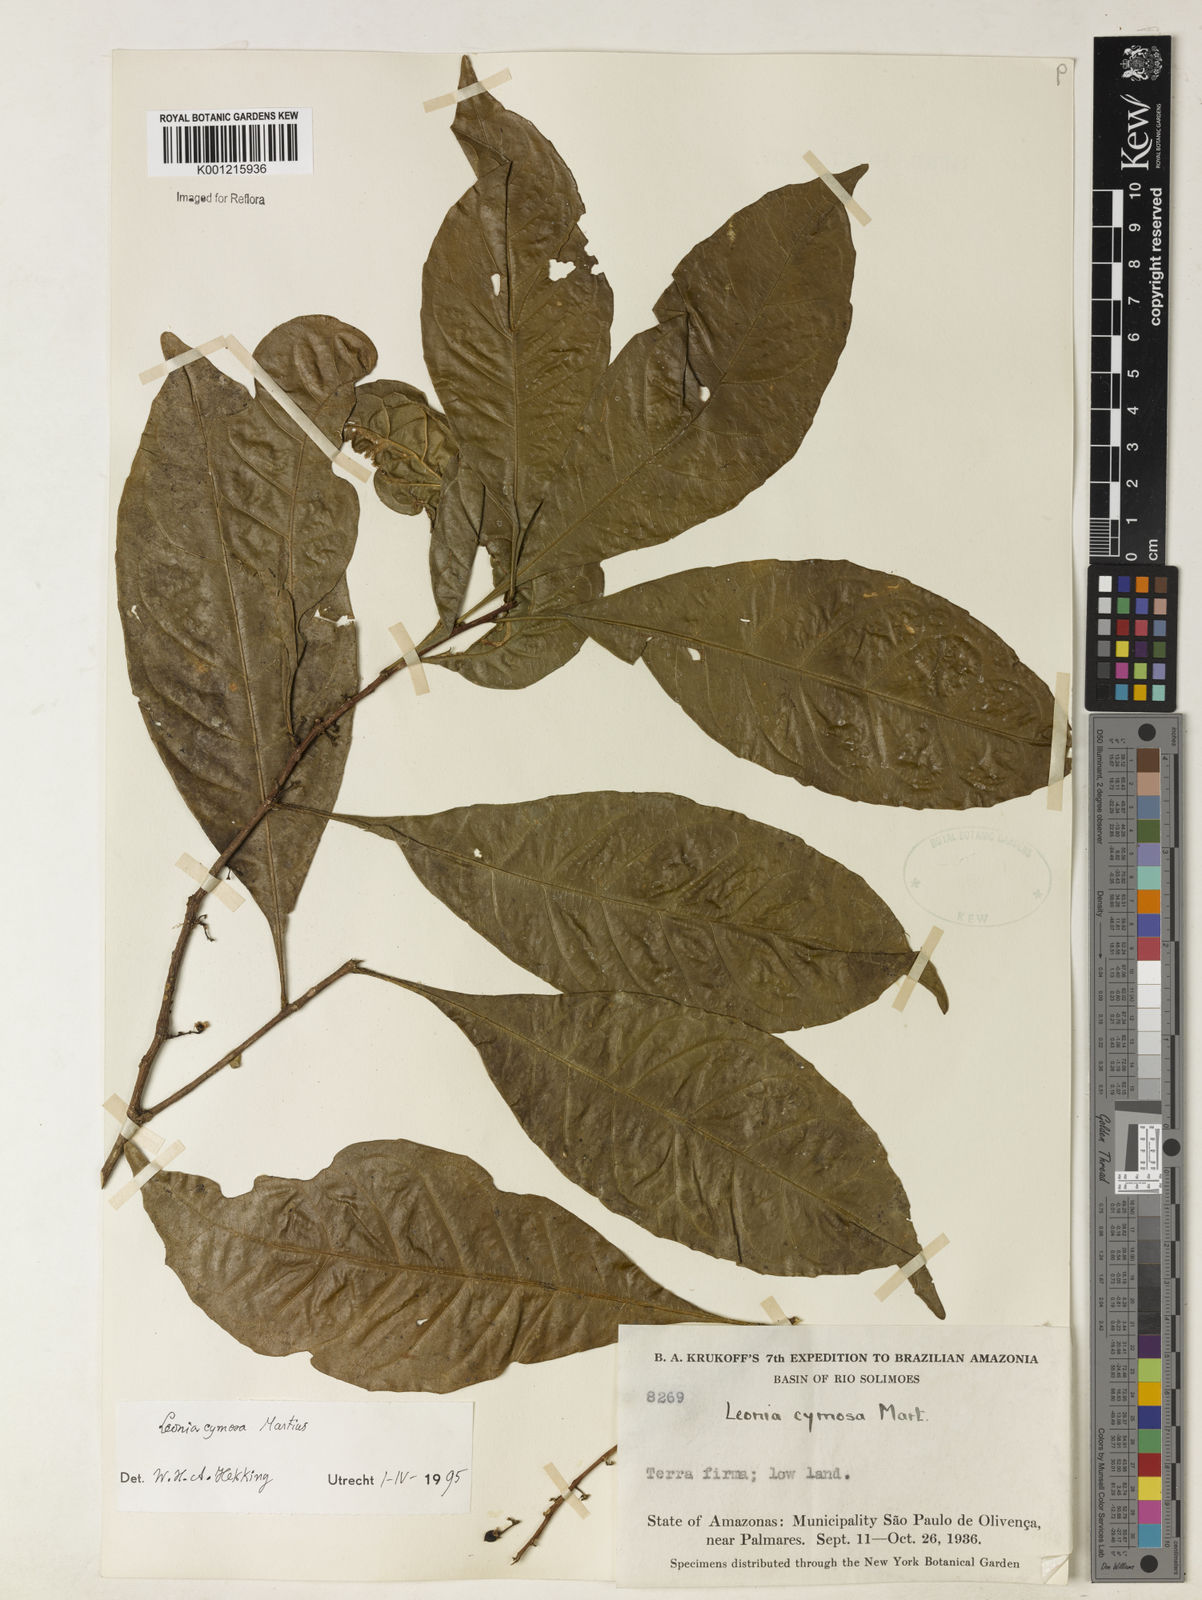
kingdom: Plantae
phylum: Tracheophyta
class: Magnoliopsida
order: Malpighiales
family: Violaceae
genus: Leonia
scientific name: Leonia cymosa
